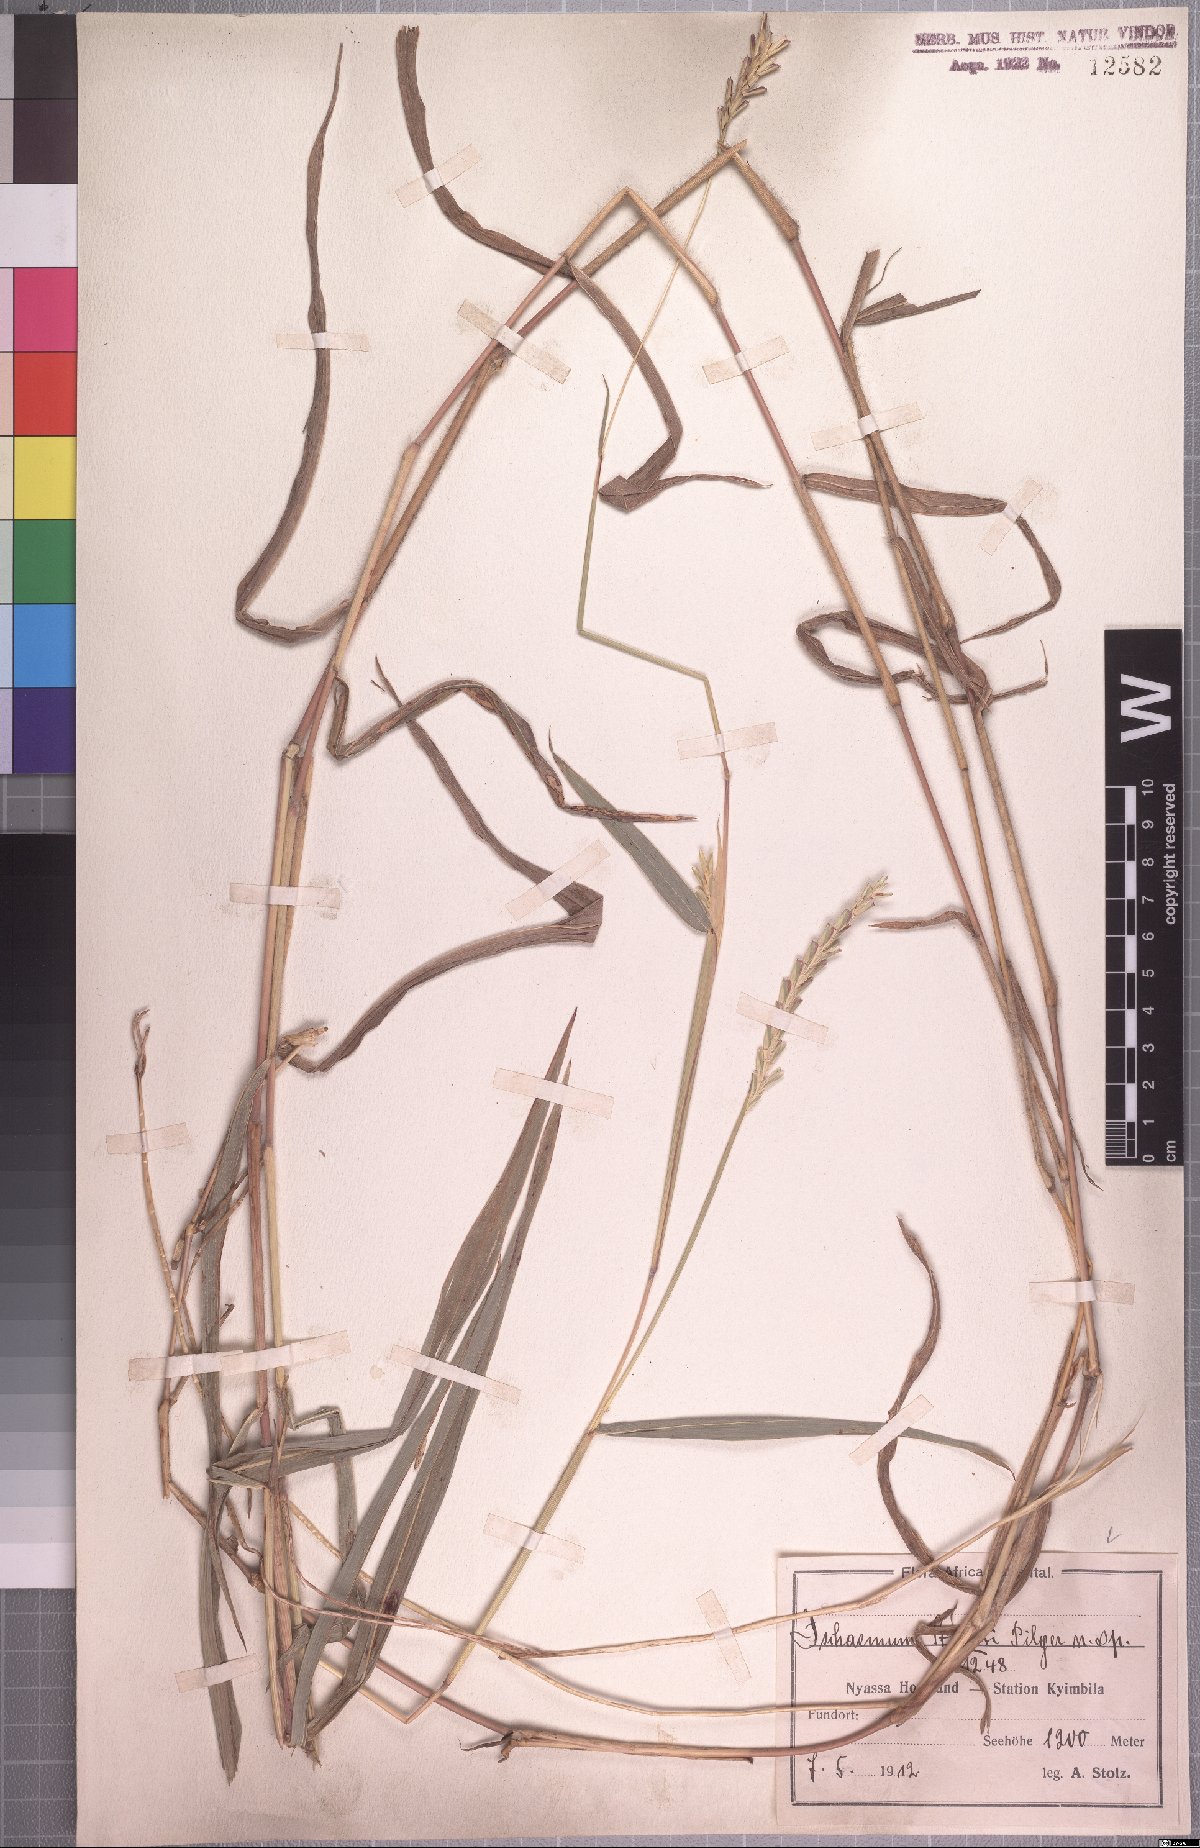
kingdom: Plantae
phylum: Tracheophyta
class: Liliopsida
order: Poales
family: Poaceae
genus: Andropterum
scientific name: Andropterum stolzii
